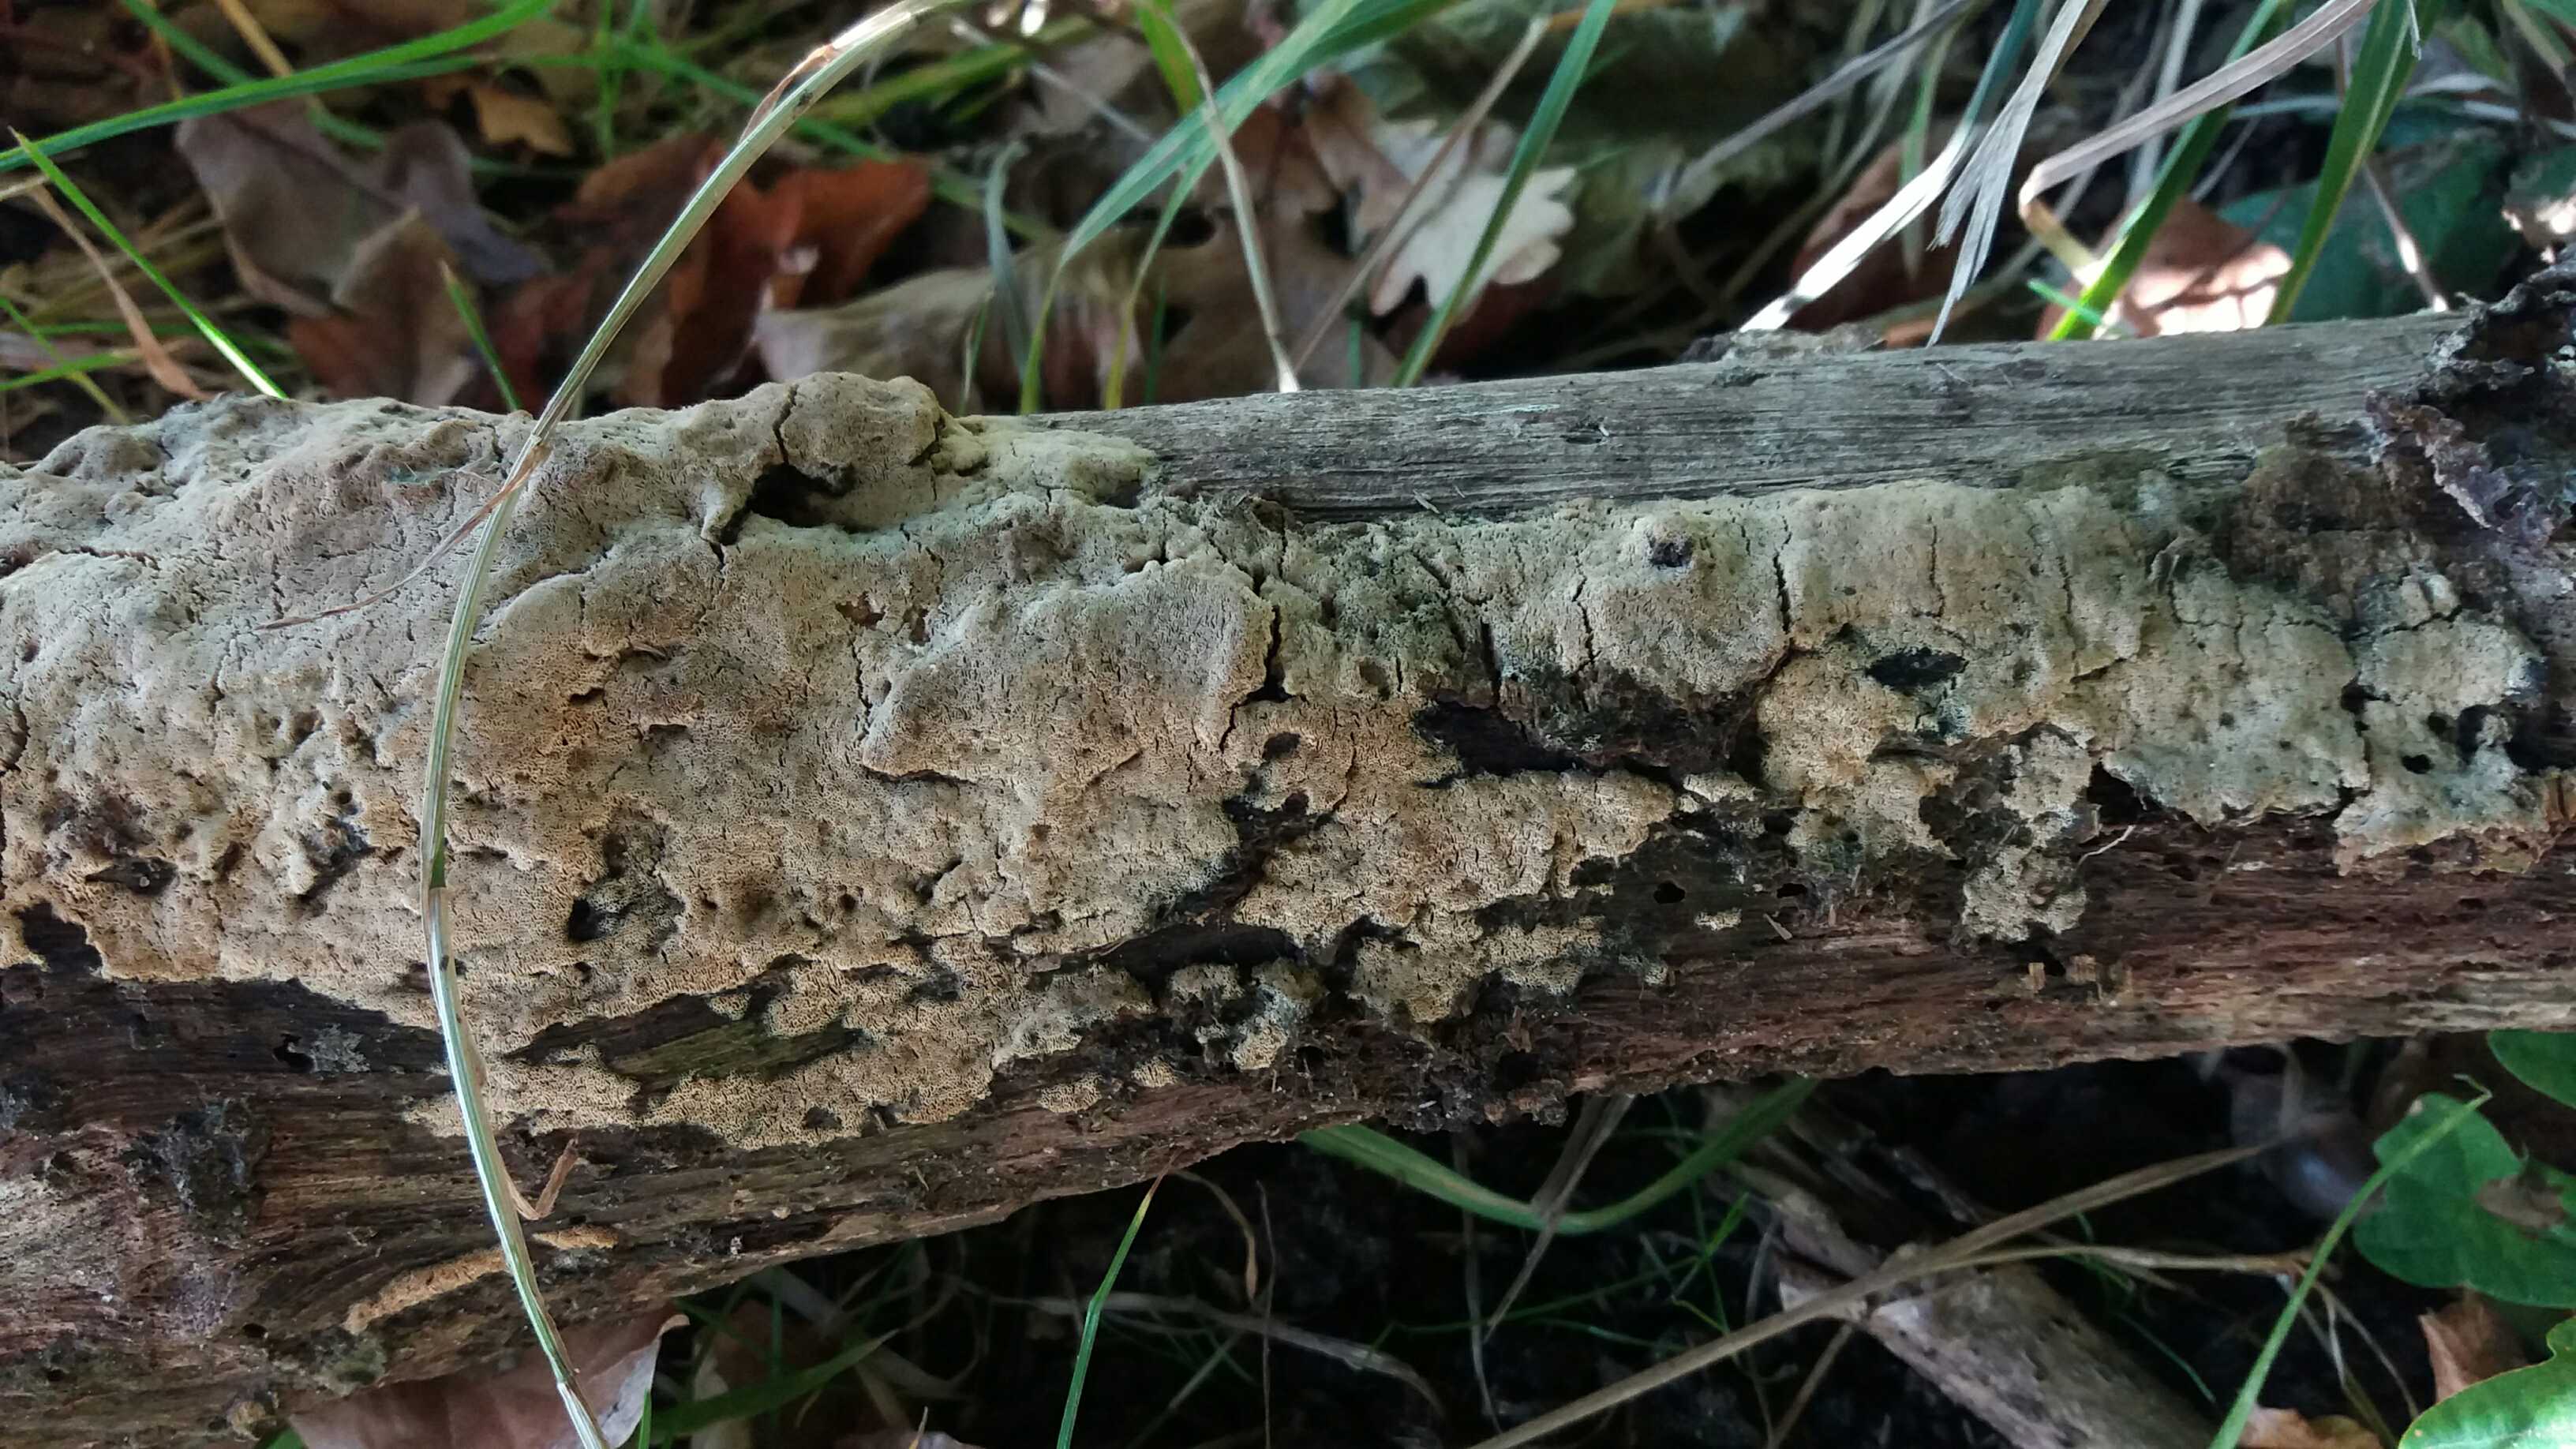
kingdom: Fungi
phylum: Basidiomycota
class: Agaricomycetes
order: Polyporales
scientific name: Polyporales
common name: poresvampordenen
